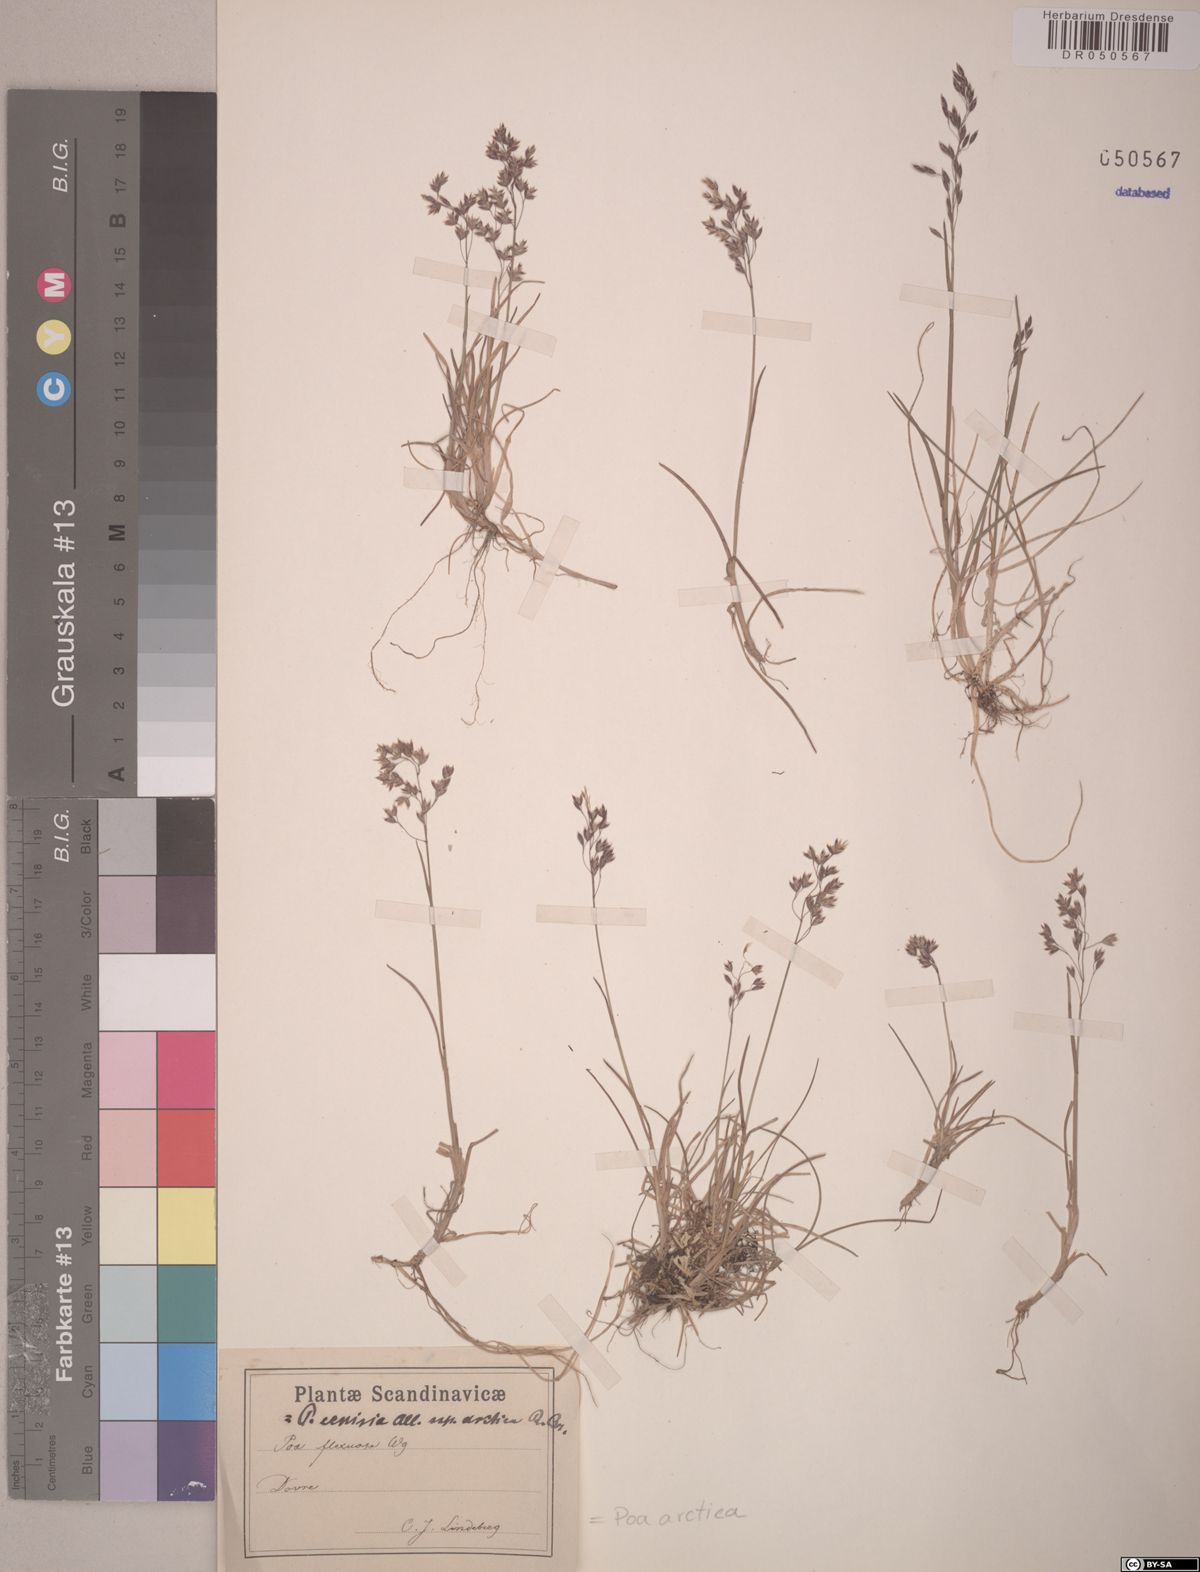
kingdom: Plantae
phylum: Tracheophyta
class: Liliopsida
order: Poales
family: Poaceae
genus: Poa
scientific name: Poa arctica
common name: Arctic bluegrass
